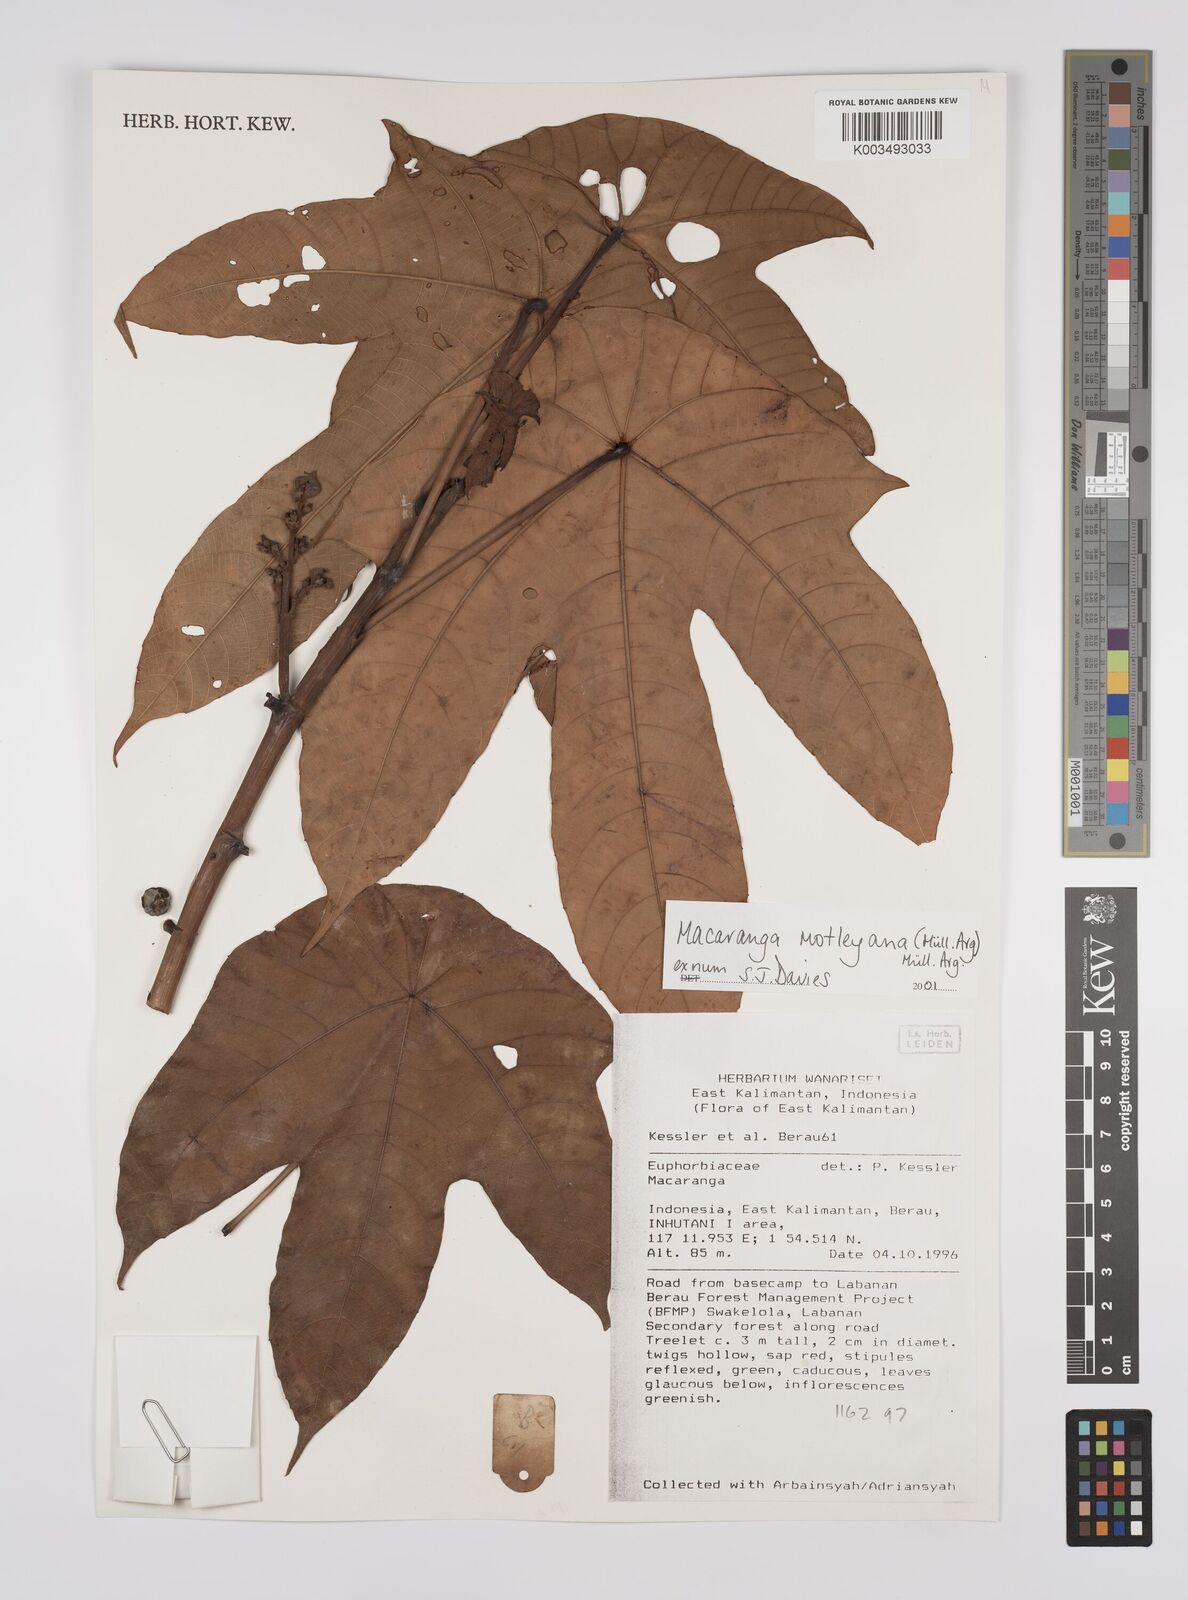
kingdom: Plantae
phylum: Tracheophyta
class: Magnoliopsida
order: Malpighiales
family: Euphorbiaceae
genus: Macaranga
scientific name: Macaranga motleyana
